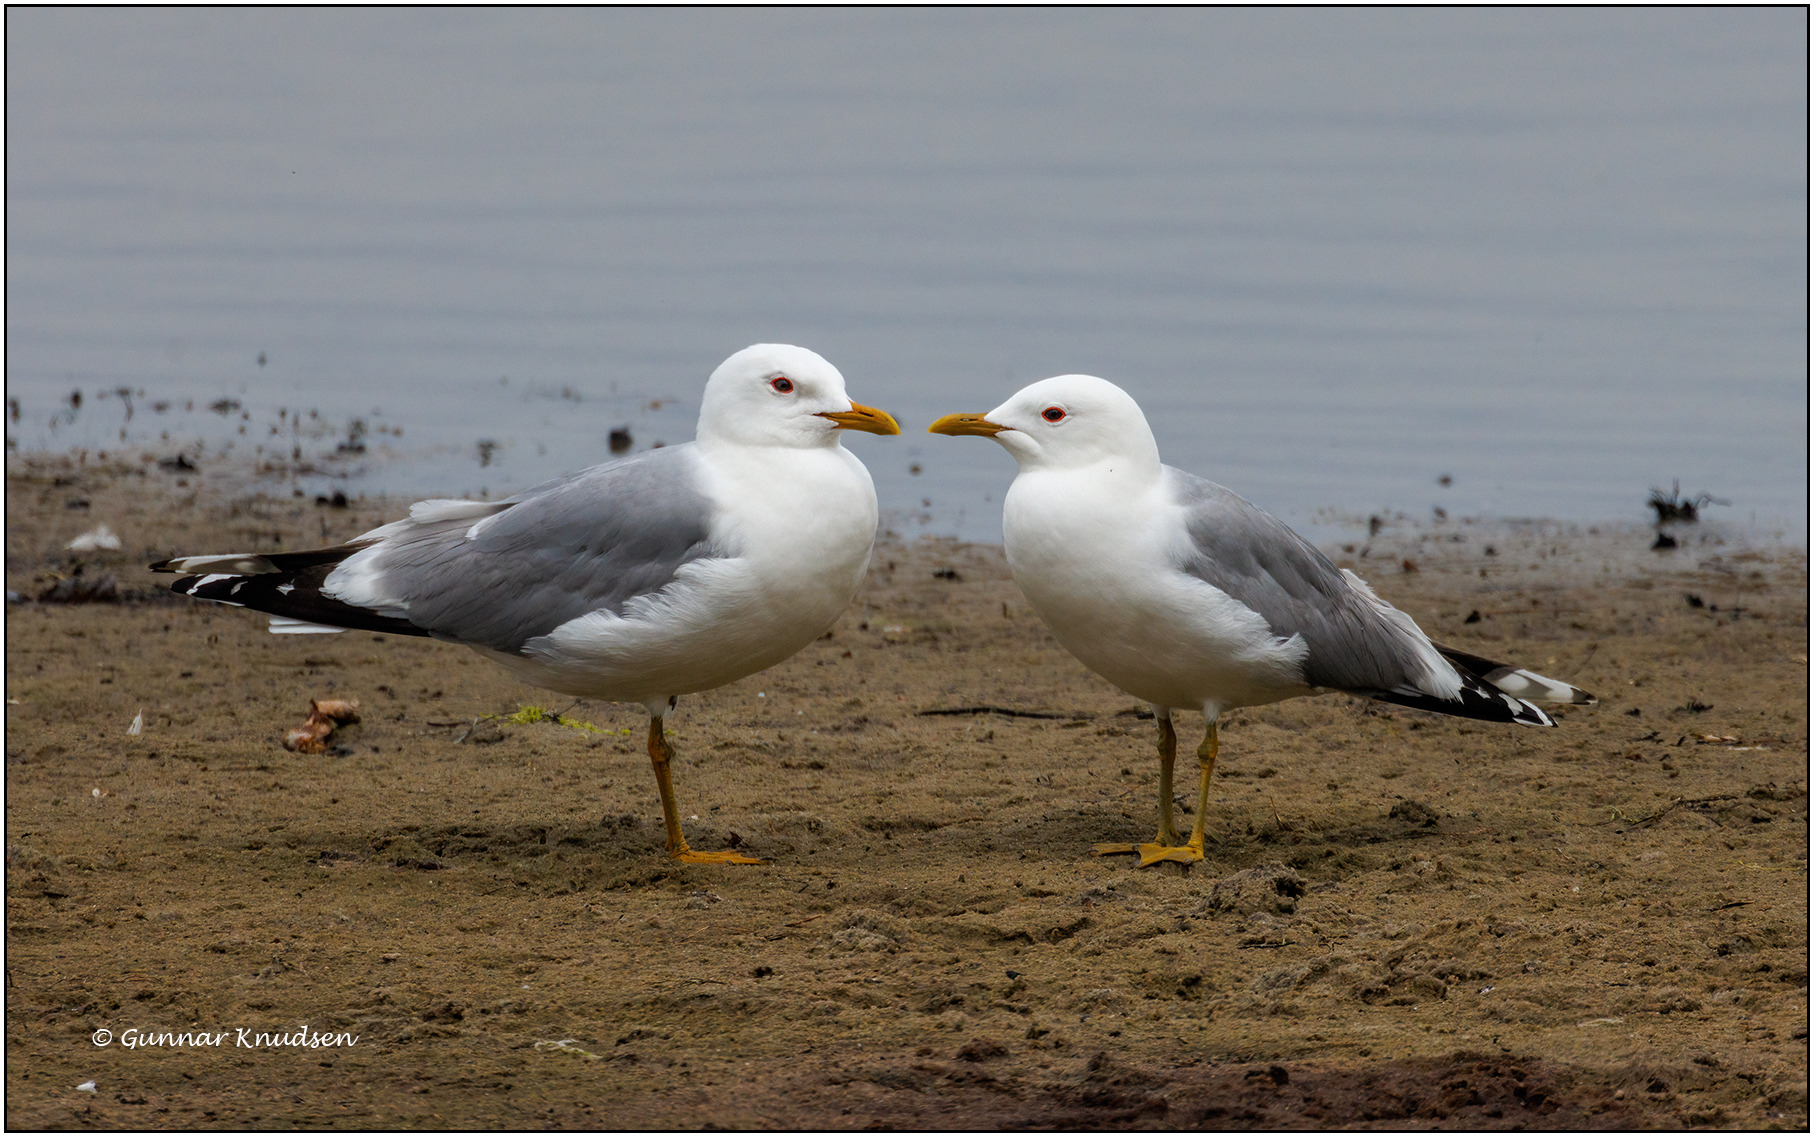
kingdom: Animalia
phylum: Chordata
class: Aves
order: Charadriiformes
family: Laridae
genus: Larus
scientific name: Larus canus
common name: Stormmåge
